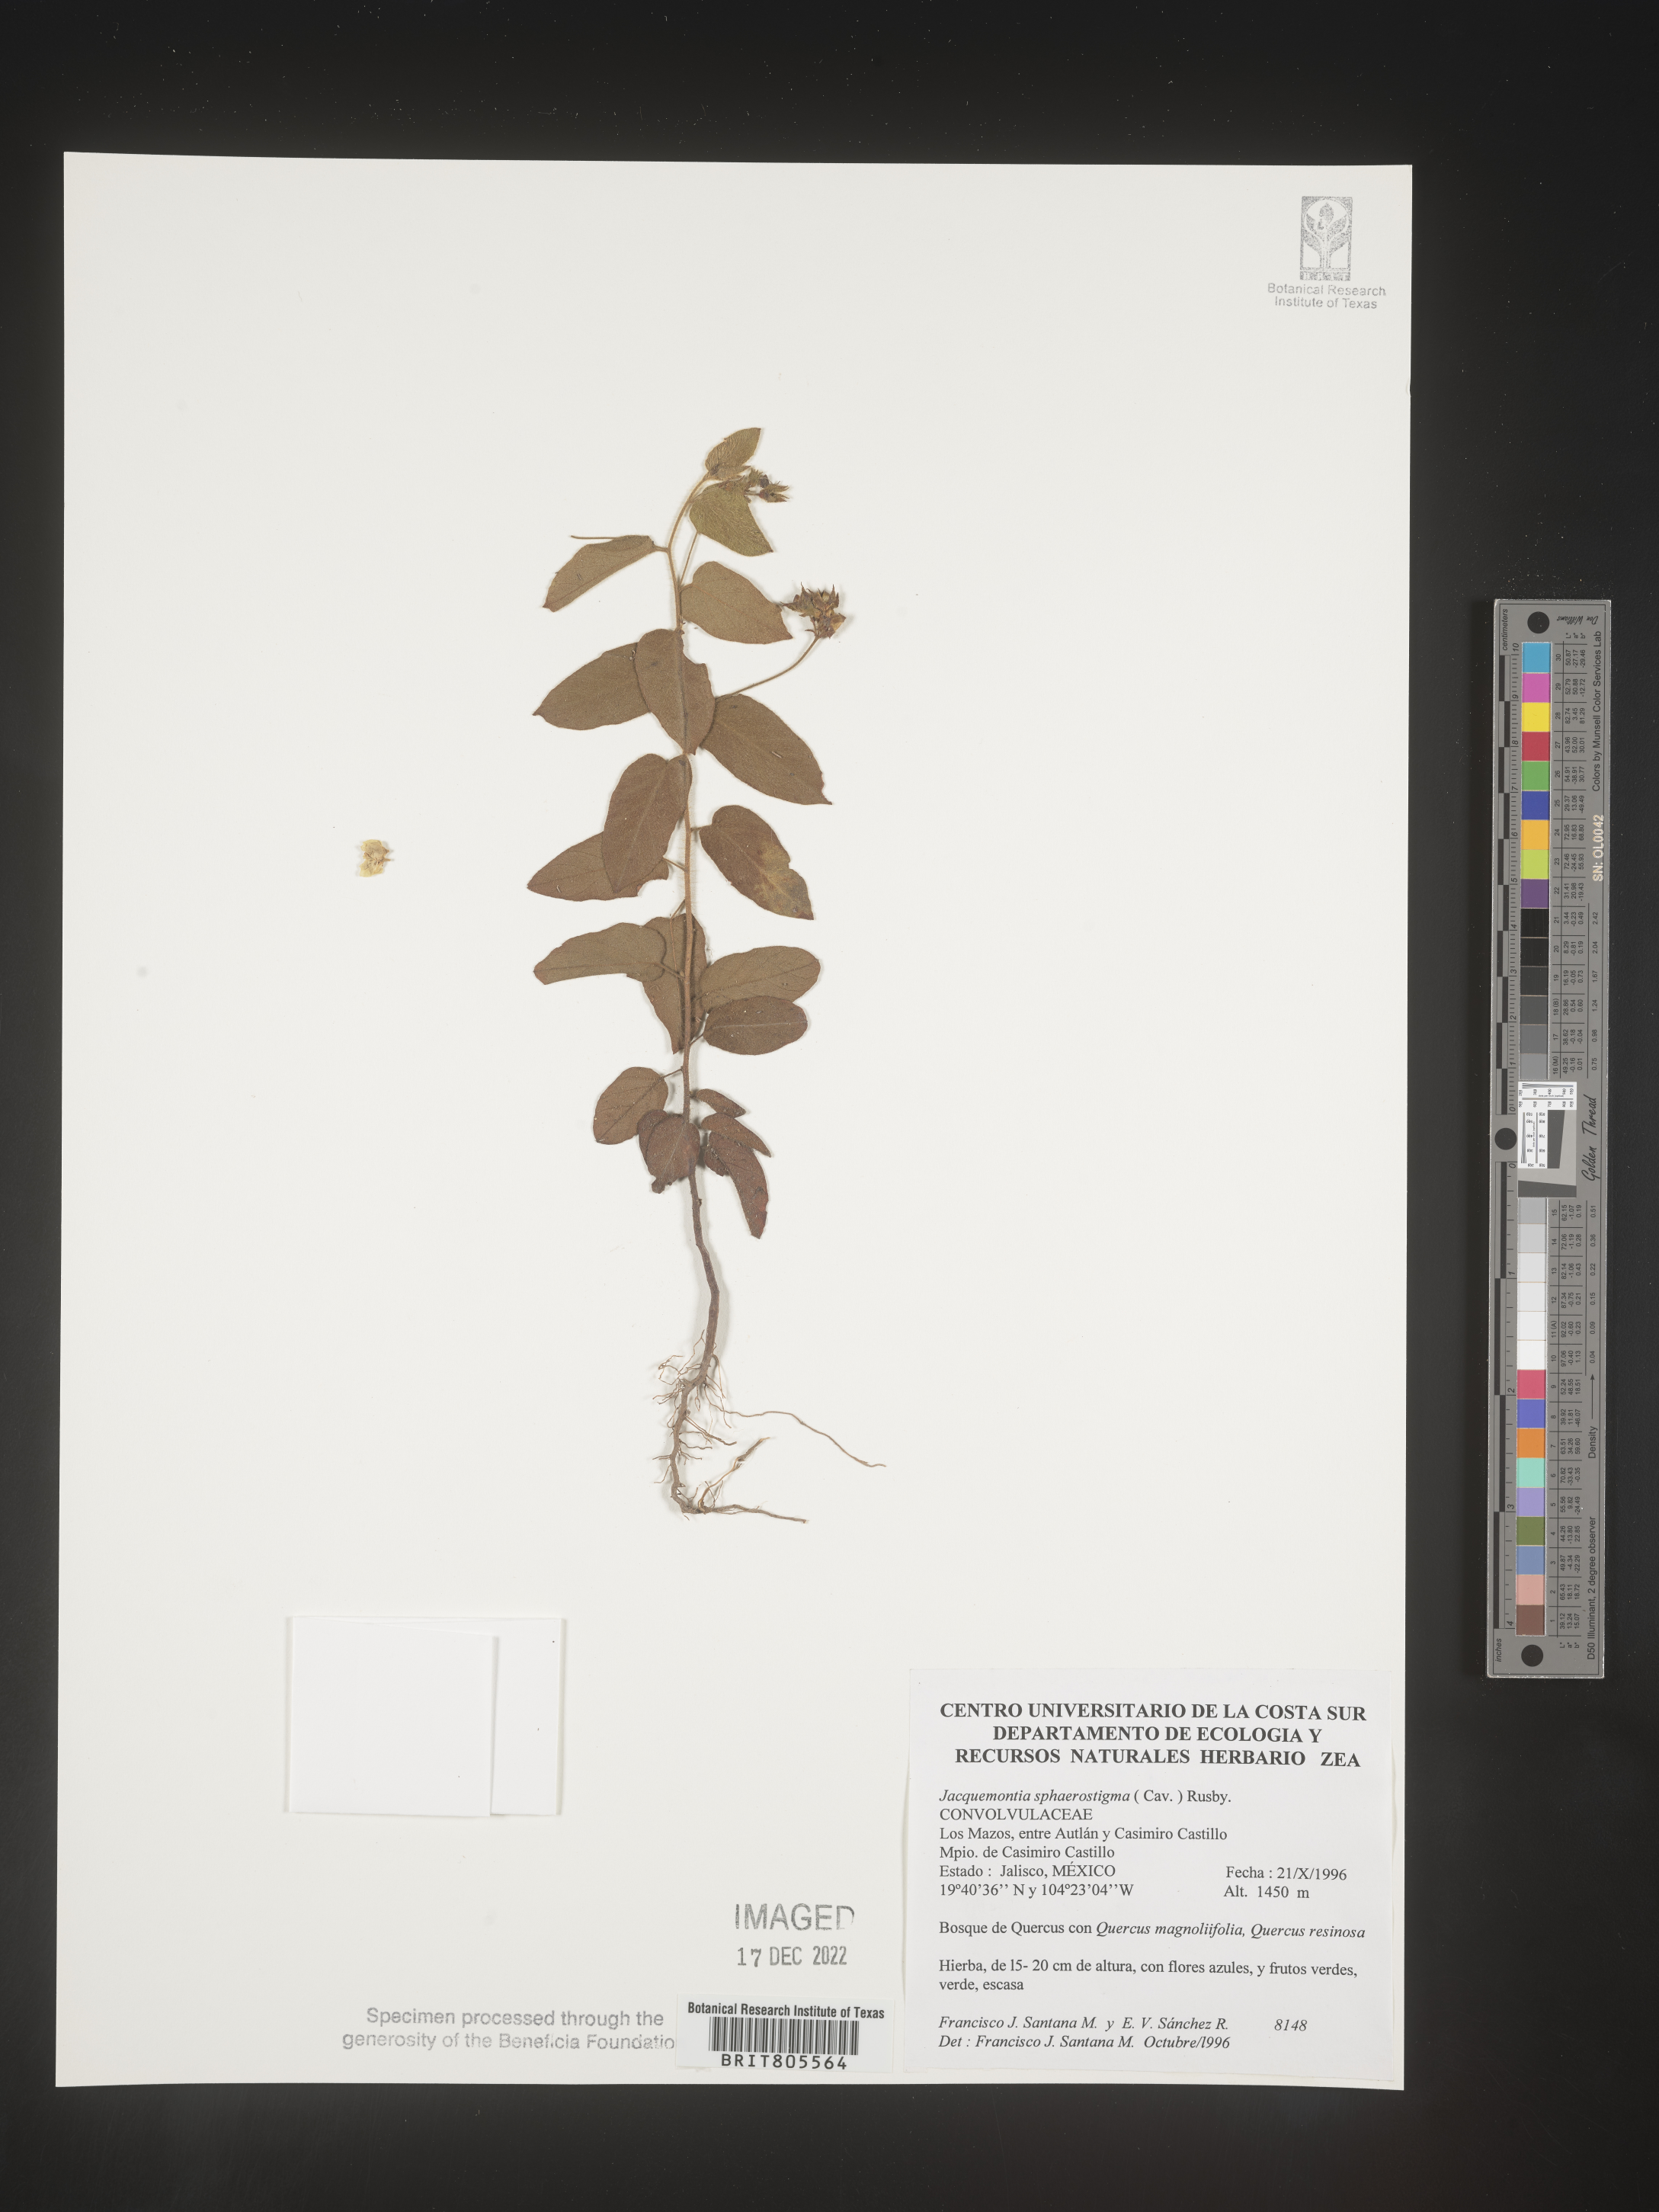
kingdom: Plantae
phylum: Tracheophyta
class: Magnoliopsida
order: Solanales
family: Convolvulaceae
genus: Jacquemontia
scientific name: Jacquemontia
